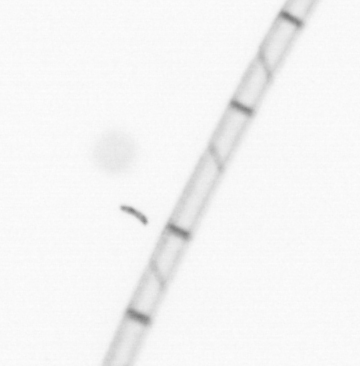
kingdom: Chromista
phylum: Ochrophyta
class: Bacillariophyceae
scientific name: Bacillariophyceae
